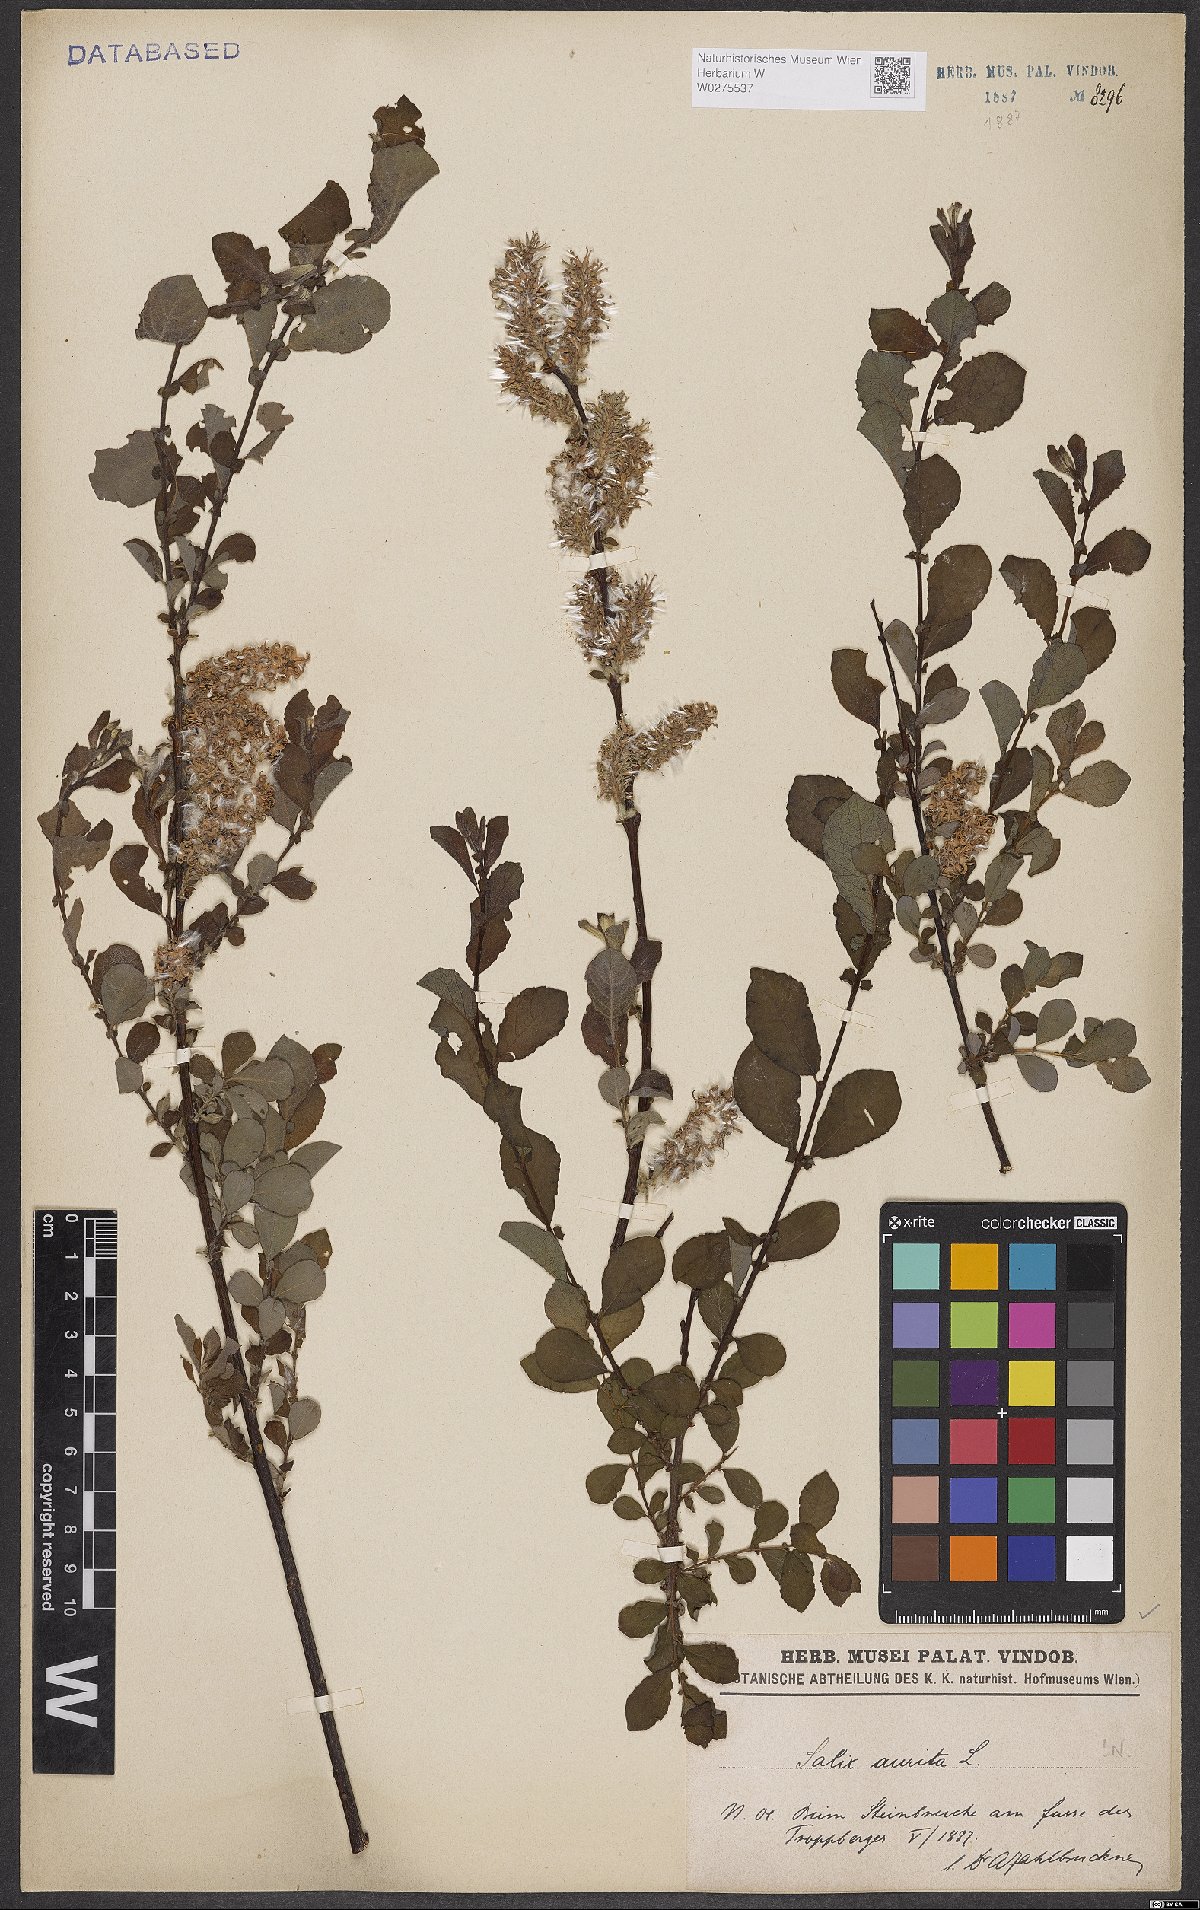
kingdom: Plantae
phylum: Tracheophyta
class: Magnoliopsida
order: Malpighiales
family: Salicaceae
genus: Salix
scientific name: Salix aurita
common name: Eared willow
